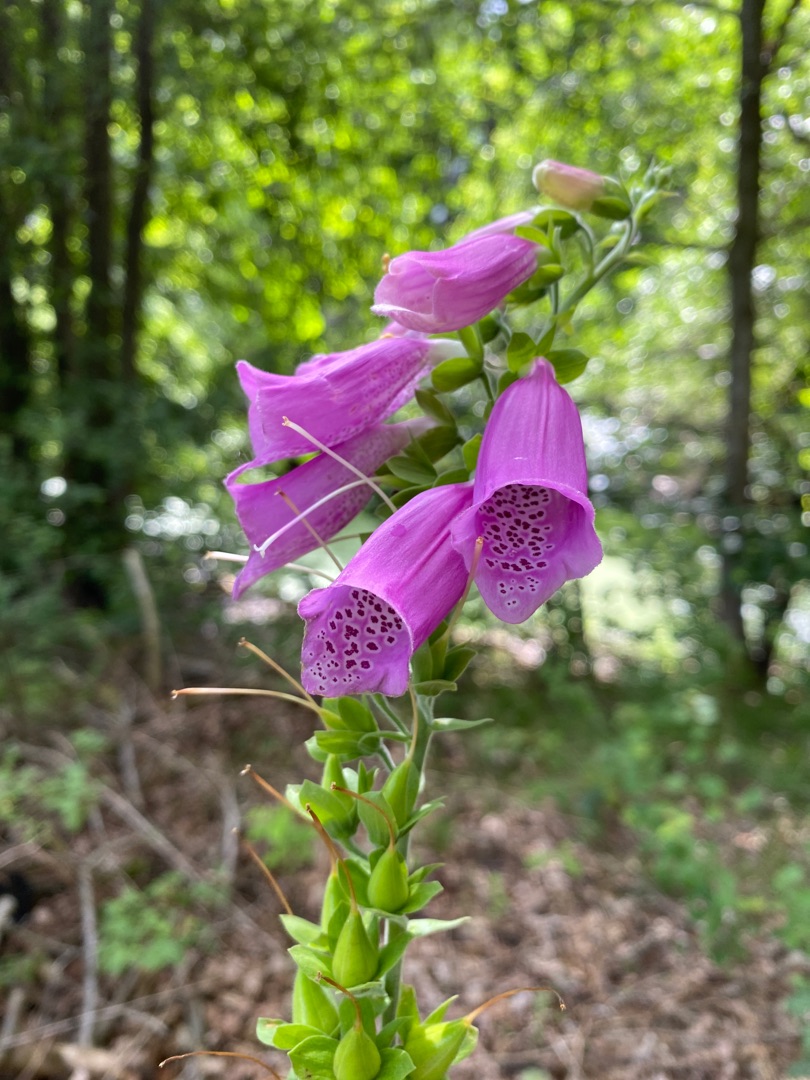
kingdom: Plantae
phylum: Tracheophyta
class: Magnoliopsida
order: Lamiales
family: Plantaginaceae
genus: Digitalis
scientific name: Digitalis purpurea
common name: Almindelig fingerbøl
